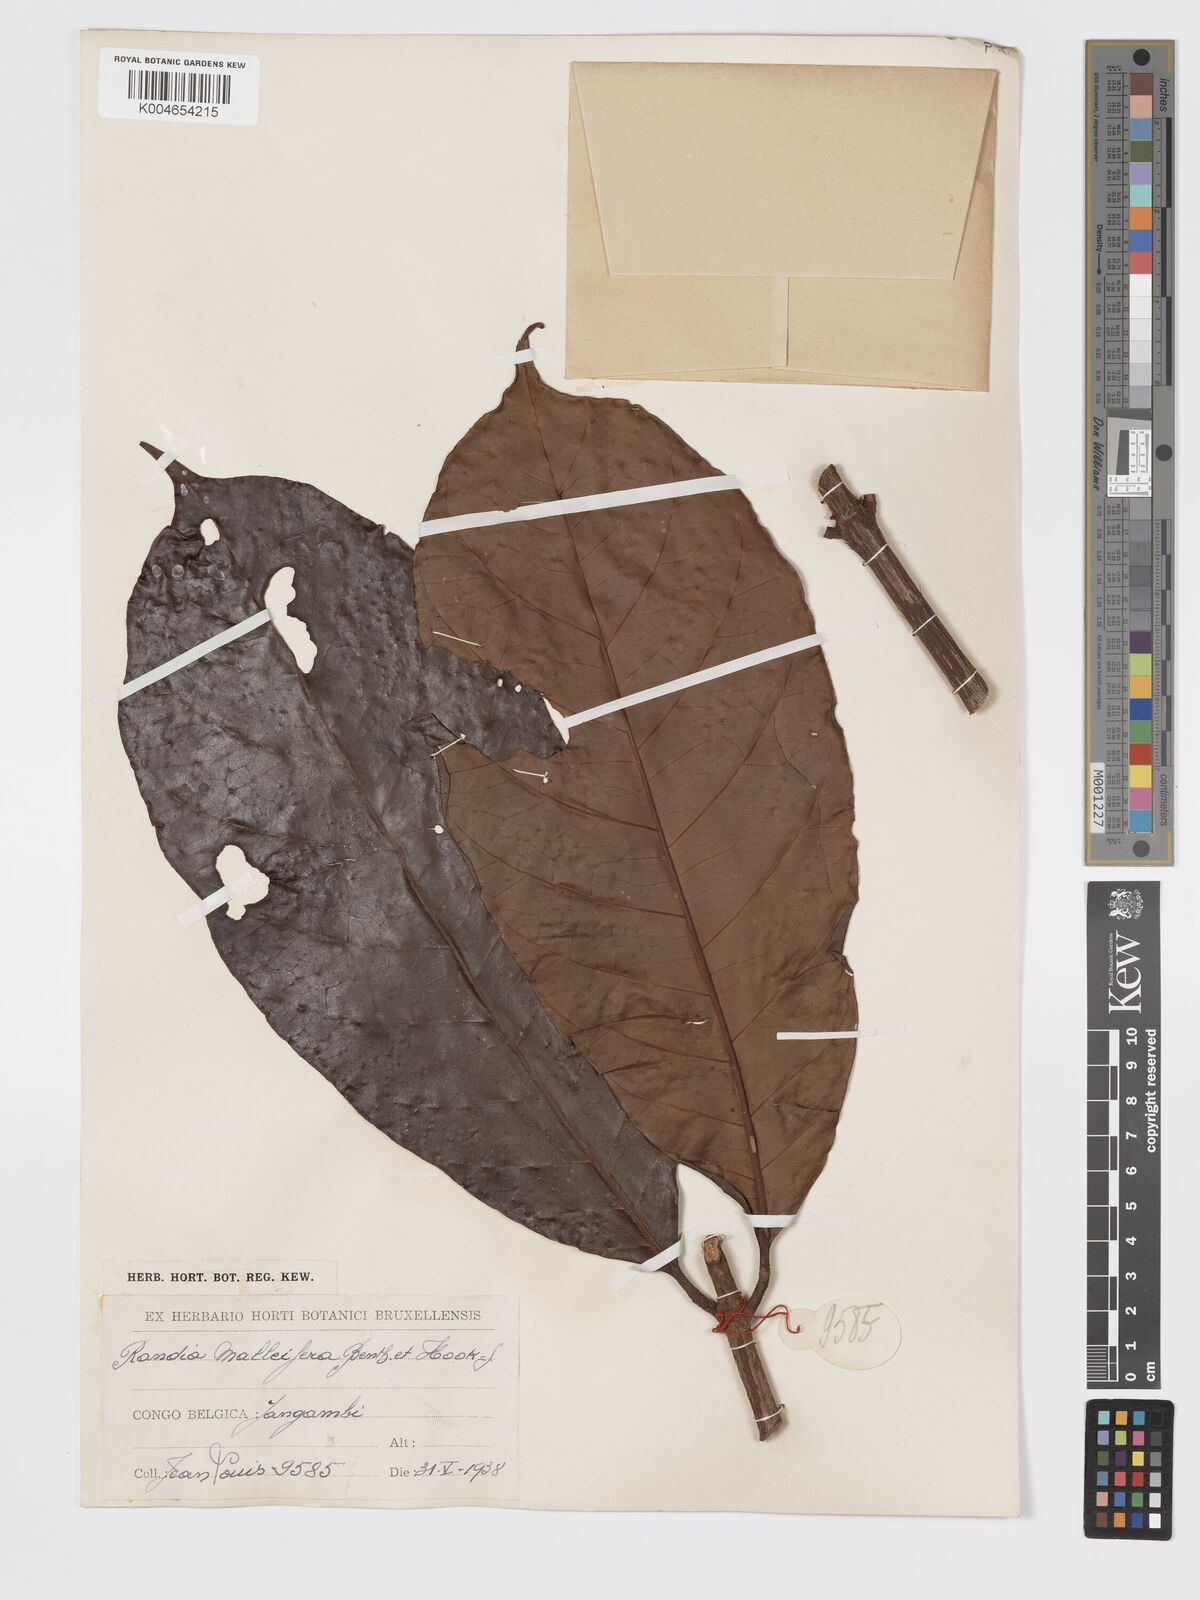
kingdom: Plantae
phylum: Tracheophyta
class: Magnoliopsida
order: Gentianales
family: Rubiaceae
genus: Rothmannia
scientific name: Rothmannia whitfieldii
